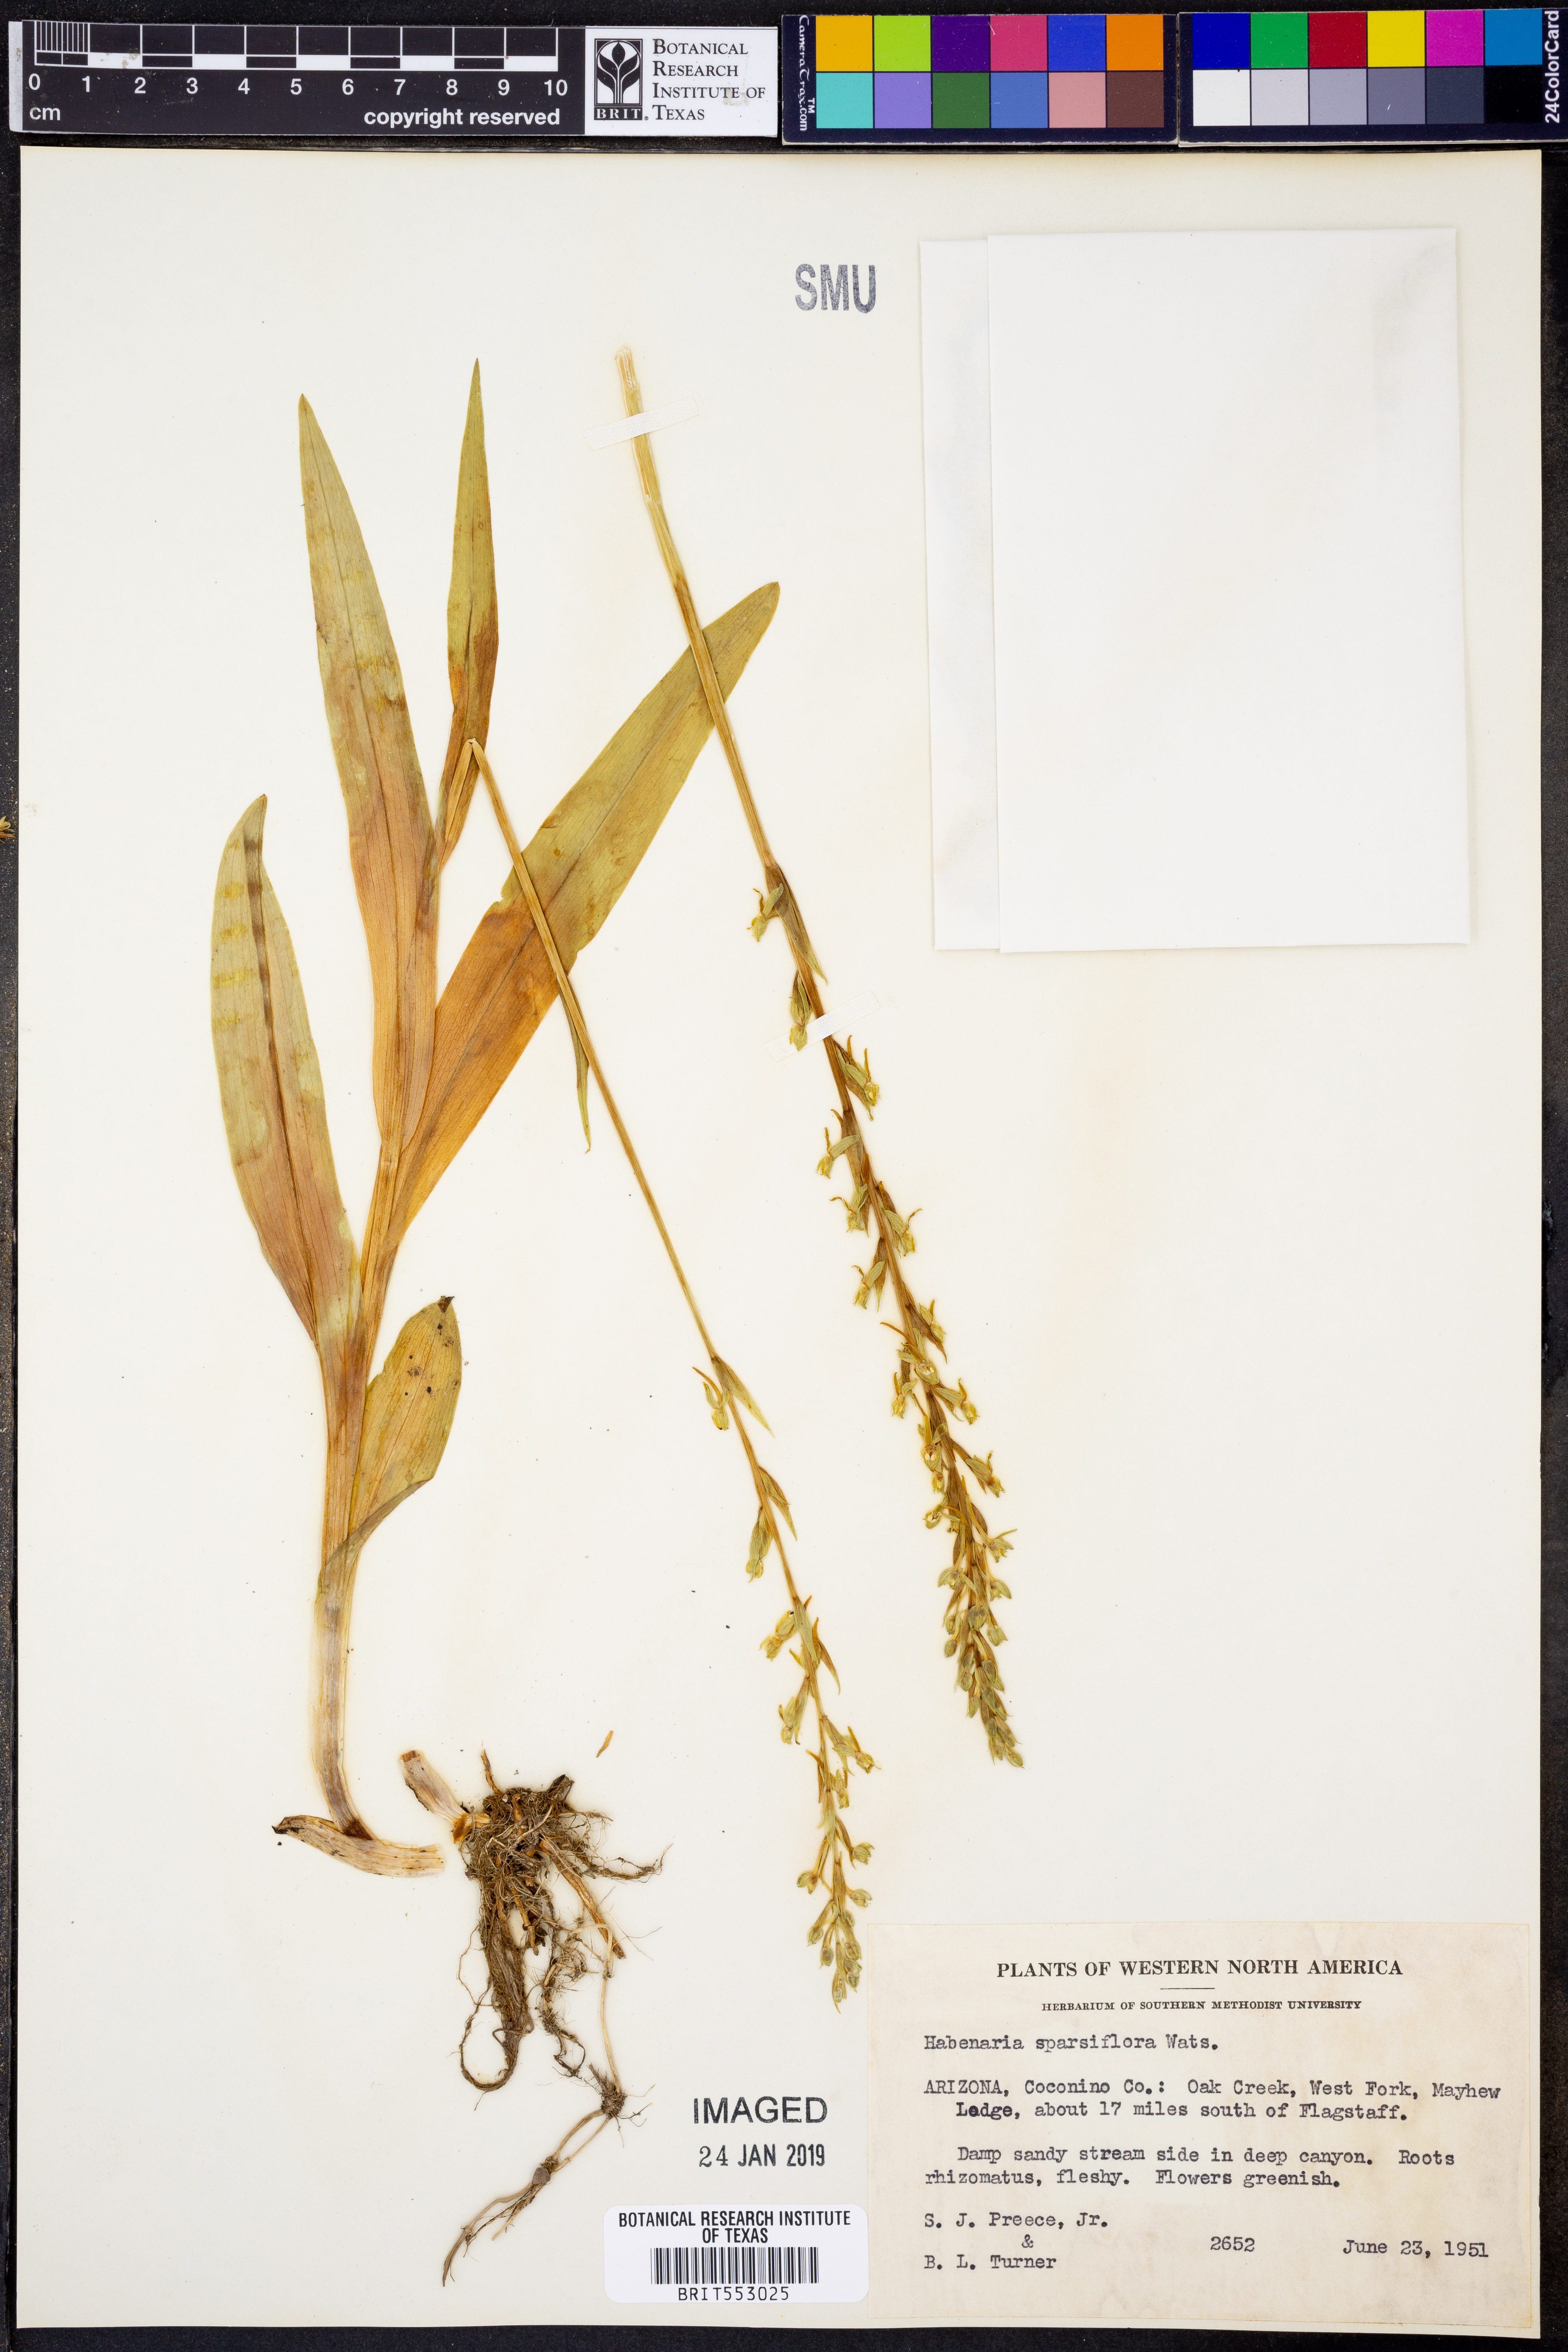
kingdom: Plantae
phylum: Tracheophyta
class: Liliopsida
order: Asparagales
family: Orchidaceae
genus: Platanthera
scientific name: Platanthera sparsiflora
